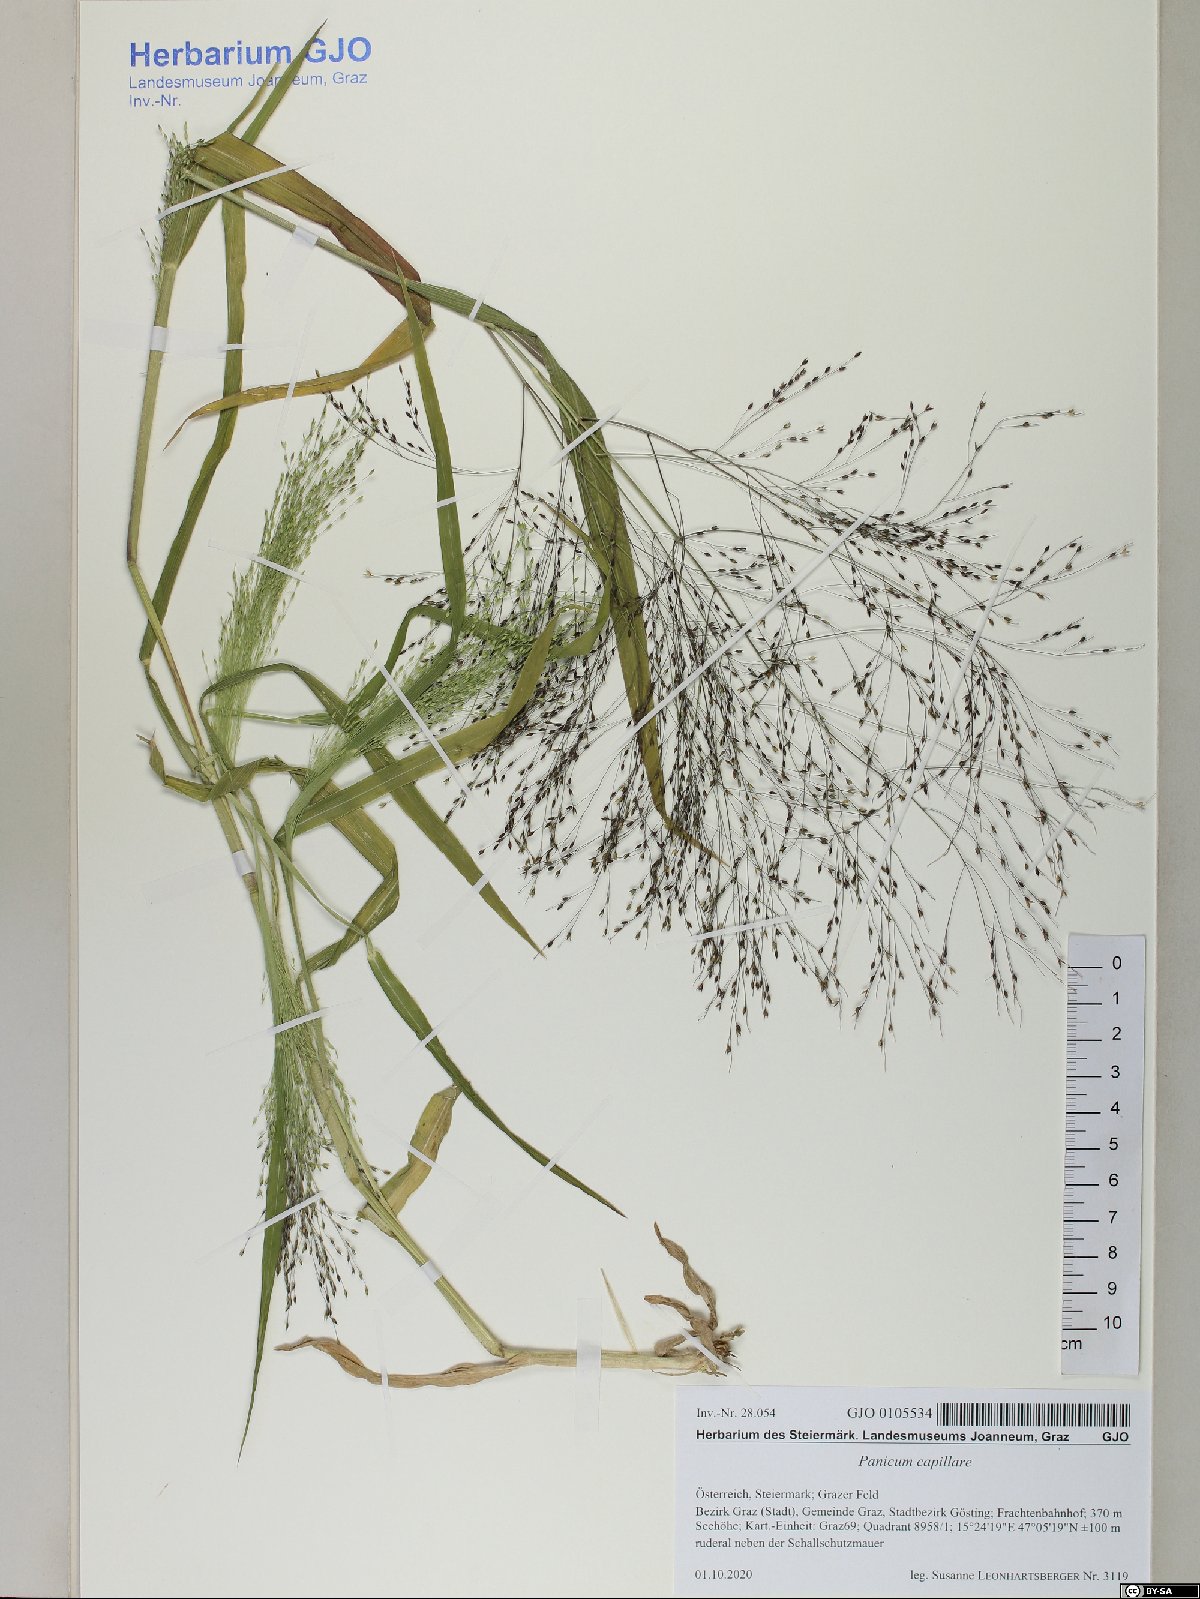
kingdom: Plantae
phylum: Tracheophyta
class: Liliopsida
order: Poales
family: Poaceae
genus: Panicum
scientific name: Panicum capillare
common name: Witch-grass
